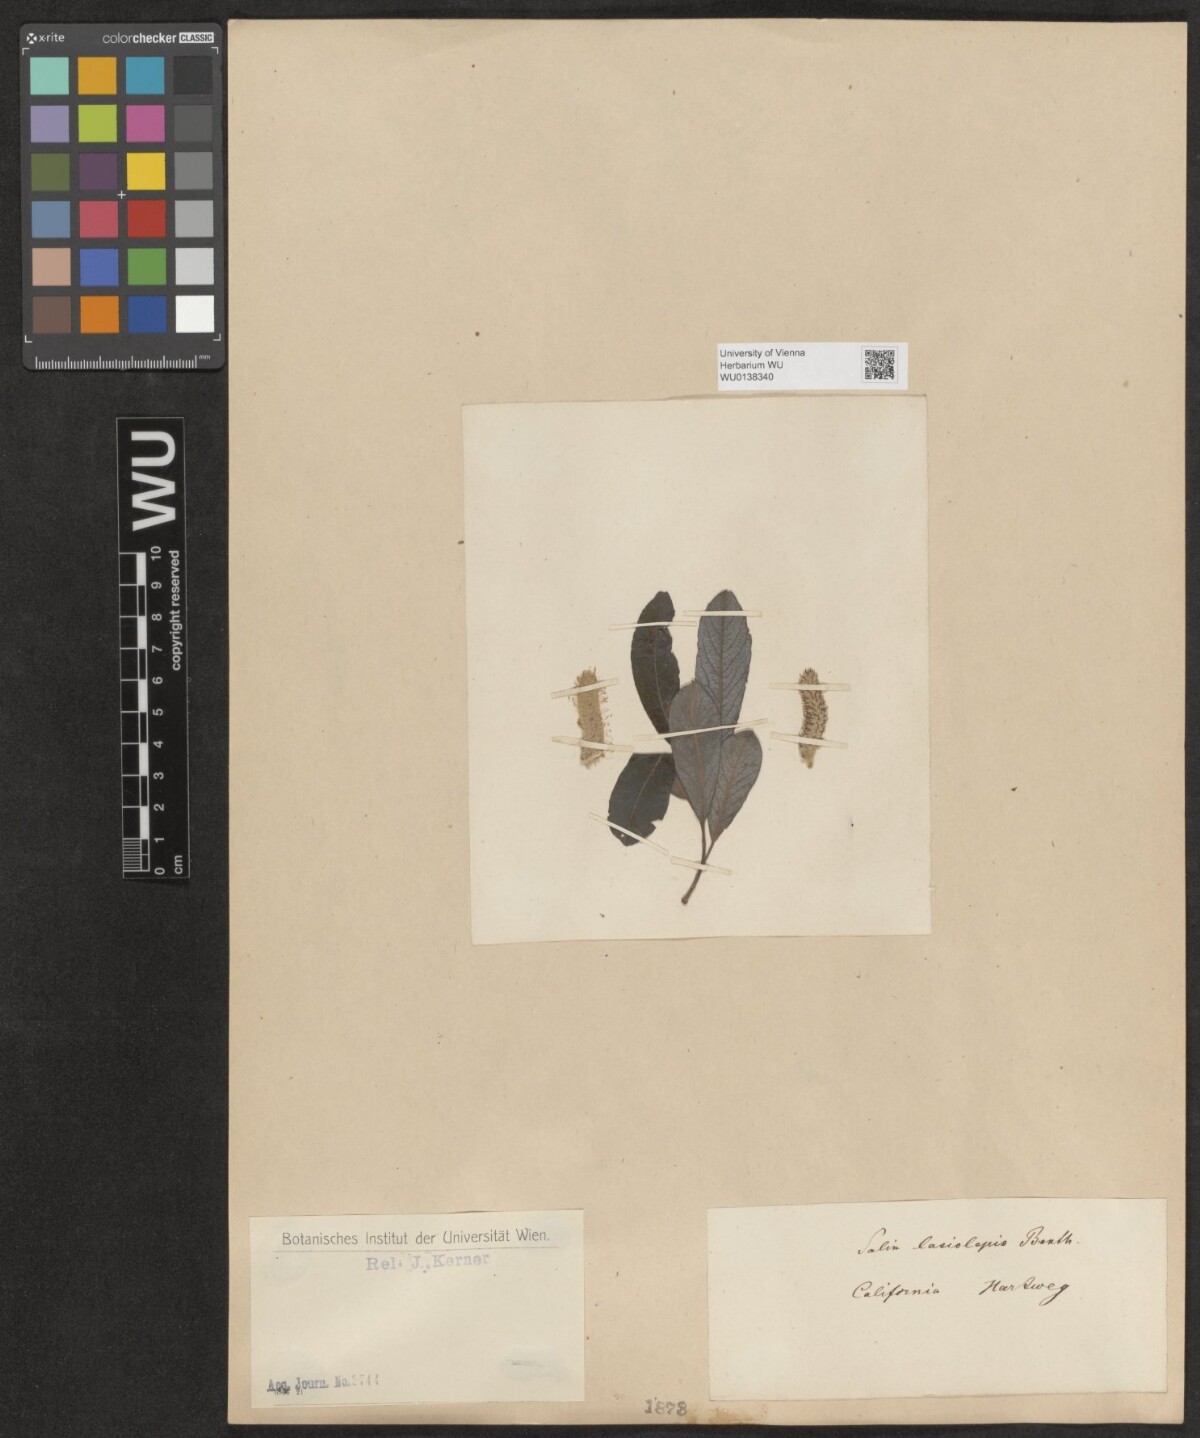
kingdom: Plantae
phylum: Tracheophyta
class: Magnoliopsida
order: Malpighiales
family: Salicaceae
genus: Salix
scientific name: Salix lasiolepis
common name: Arroyo willow
